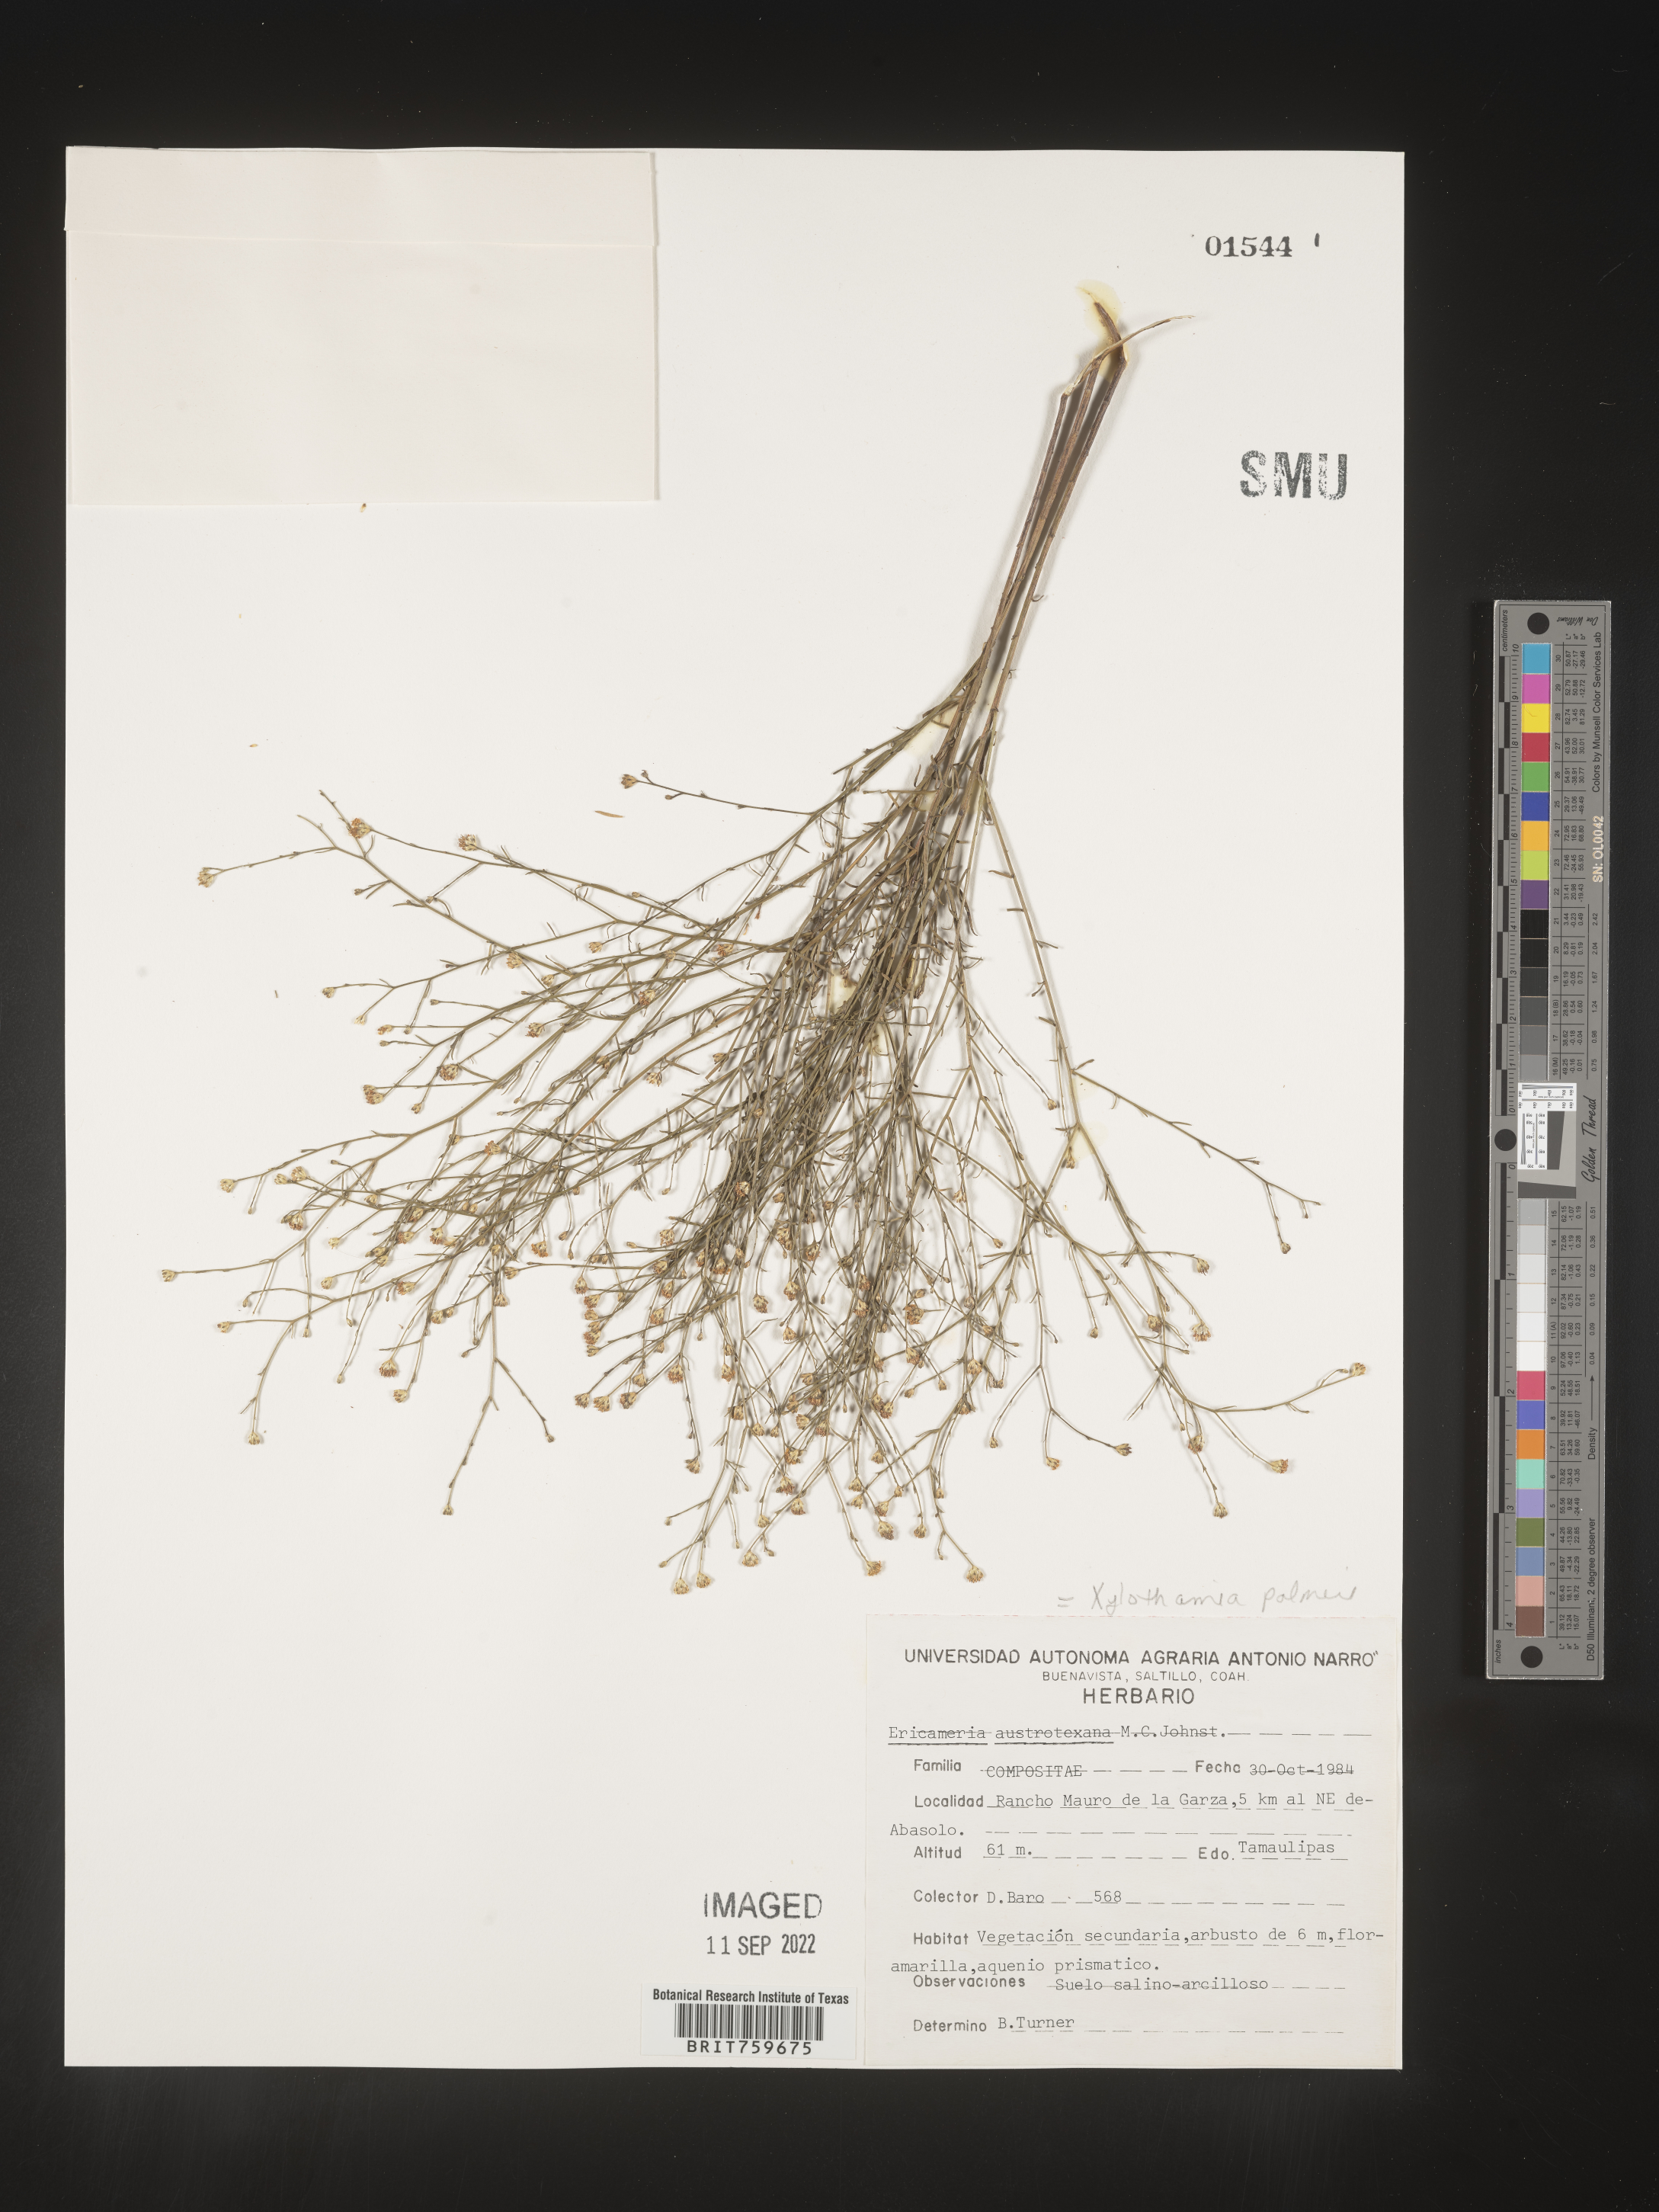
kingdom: Plantae
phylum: Tracheophyta
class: Magnoliopsida
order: Asterales
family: Asteraceae
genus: Gundlachia
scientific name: Gundlachia
